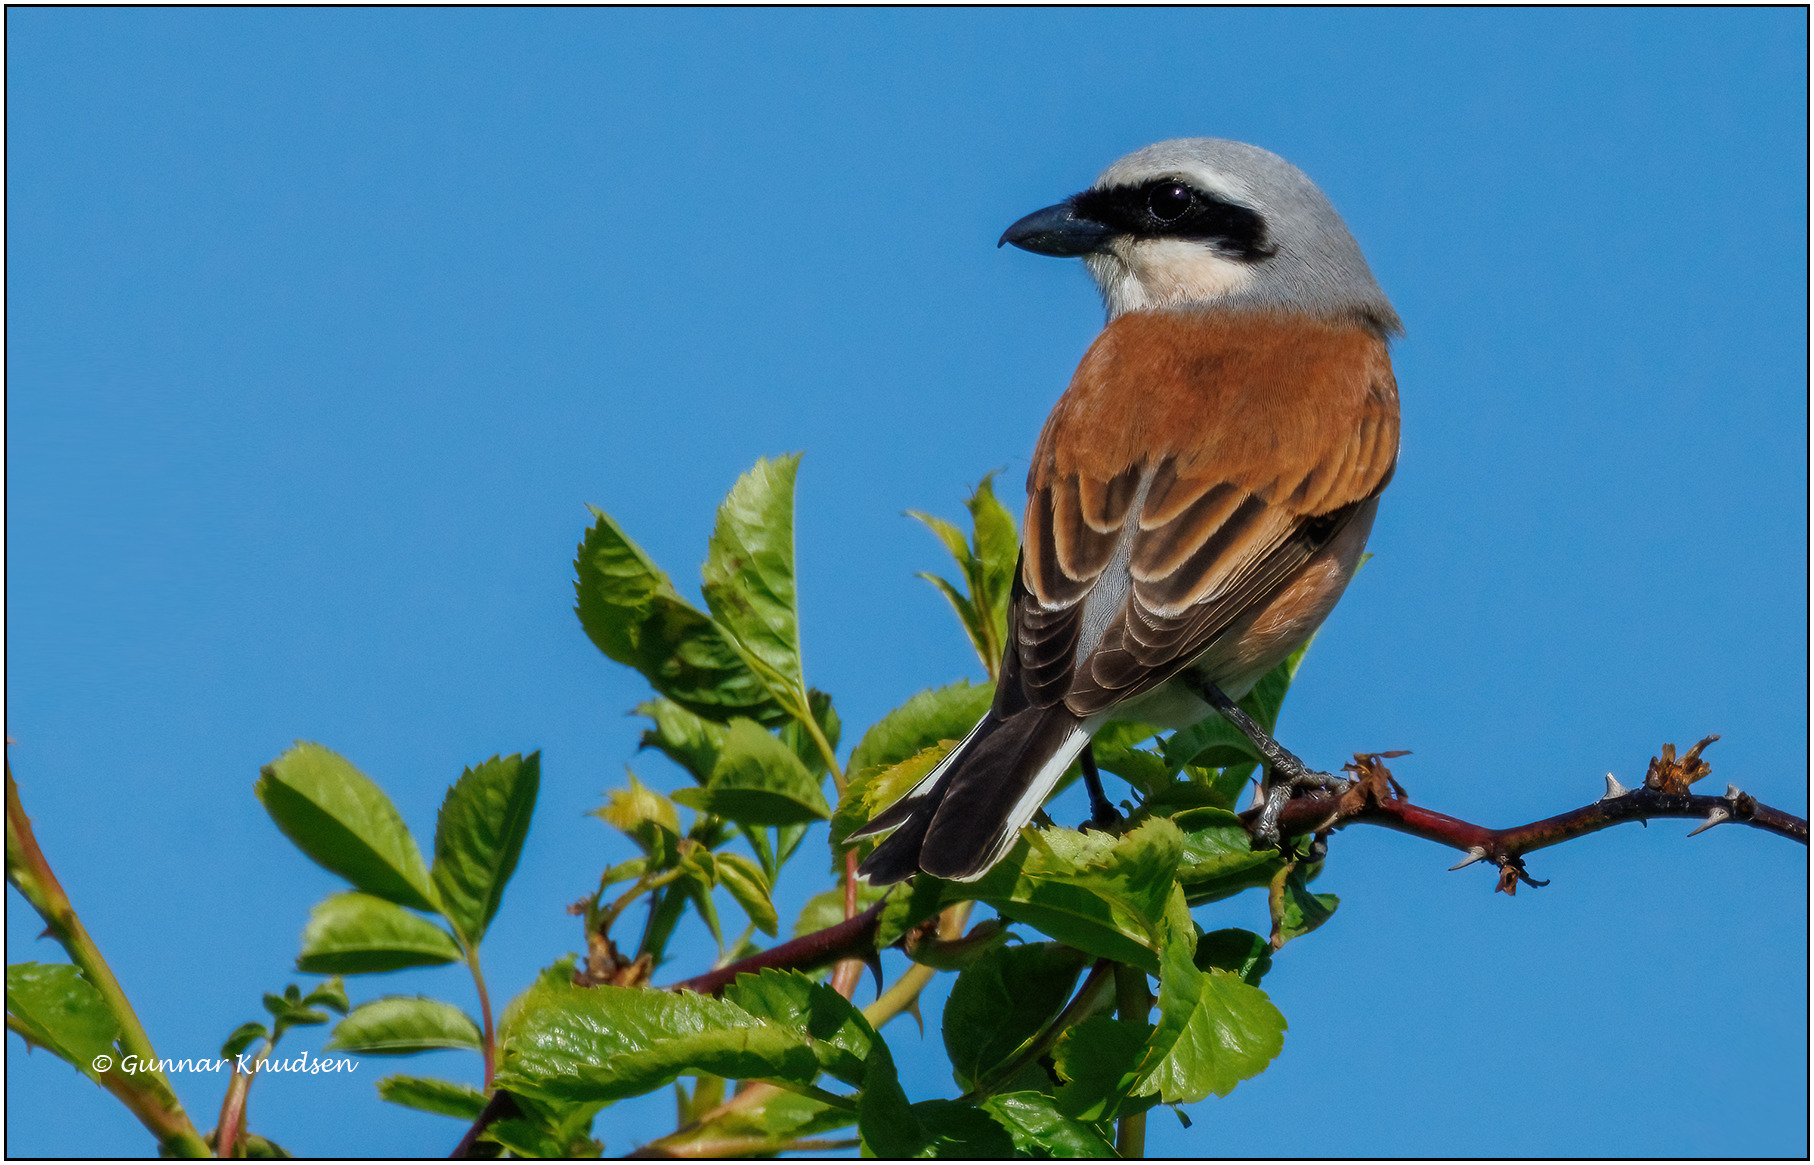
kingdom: Animalia
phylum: Chordata
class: Aves
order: Passeriformes
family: Laniidae
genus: Lanius
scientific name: Lanius collurio
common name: Rødrygget tornskade
